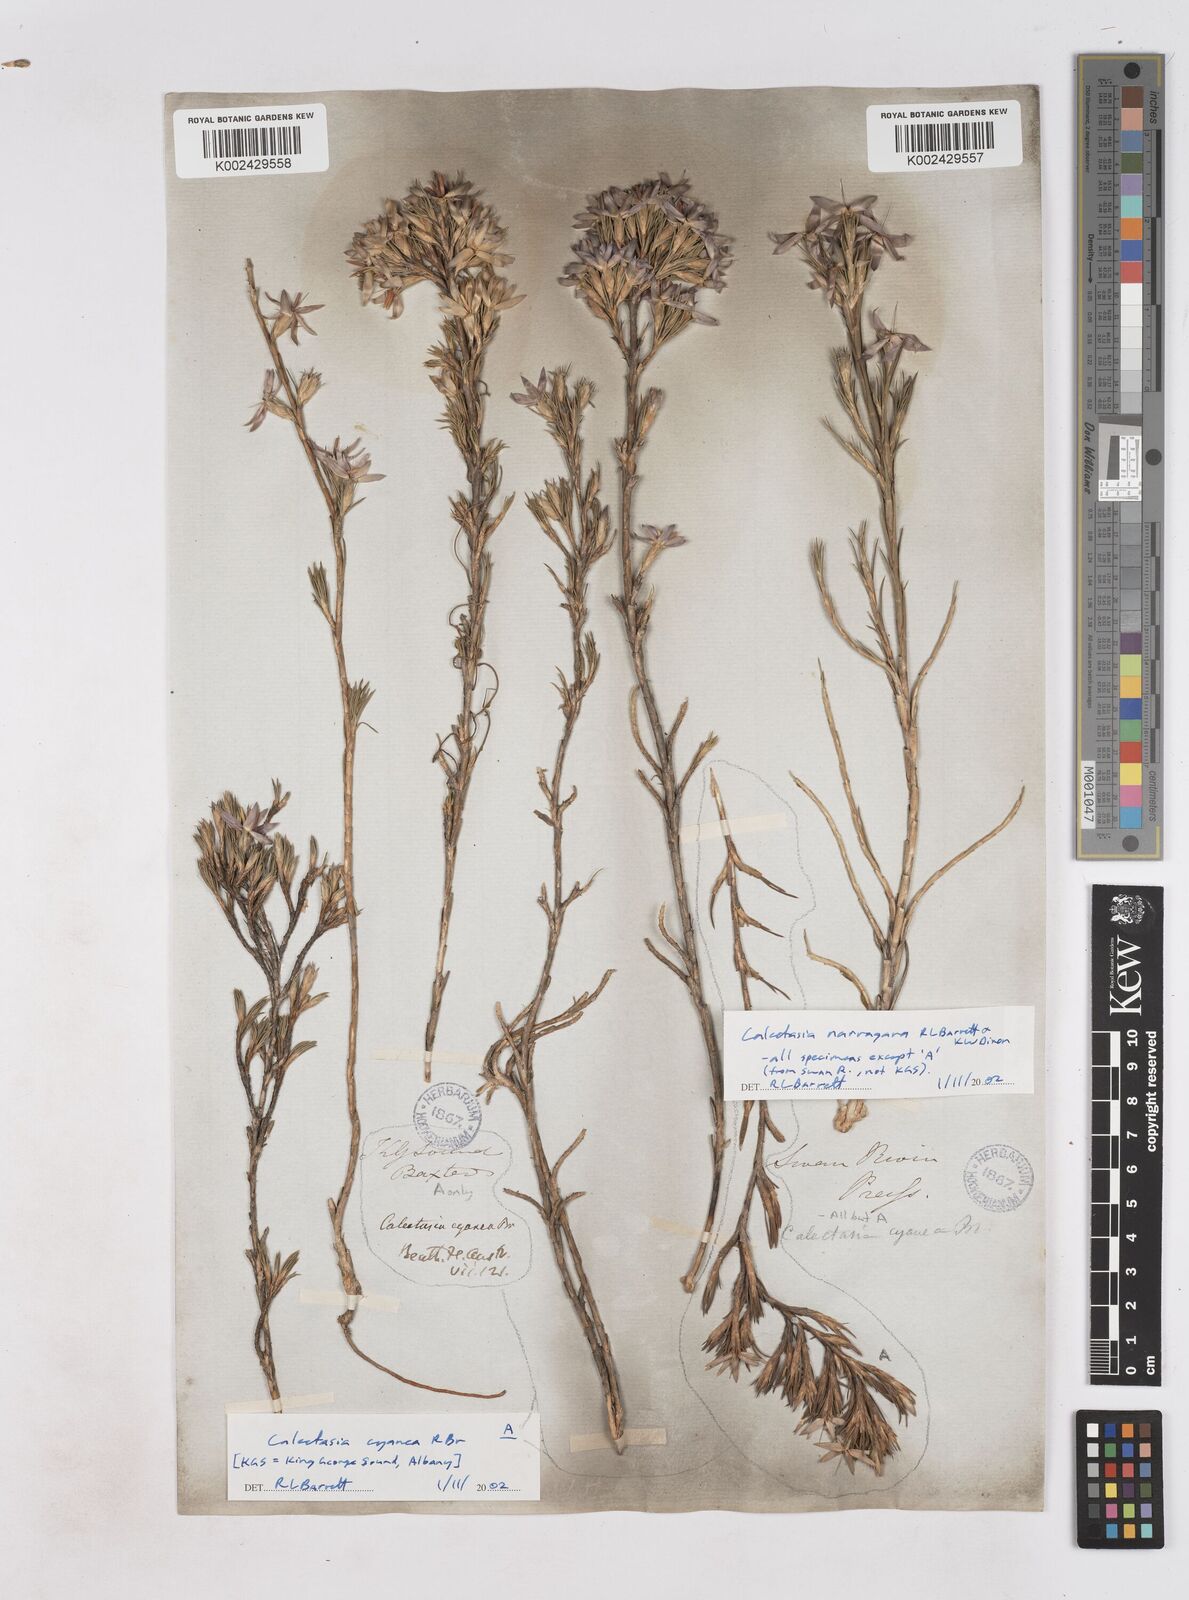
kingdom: Plantae
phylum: Tracheophyta
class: Liliopsida
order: Arecales
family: Dasypogonaceae
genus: Calectasia
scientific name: Calectasia cyanea
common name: Blue tinsel-lily
